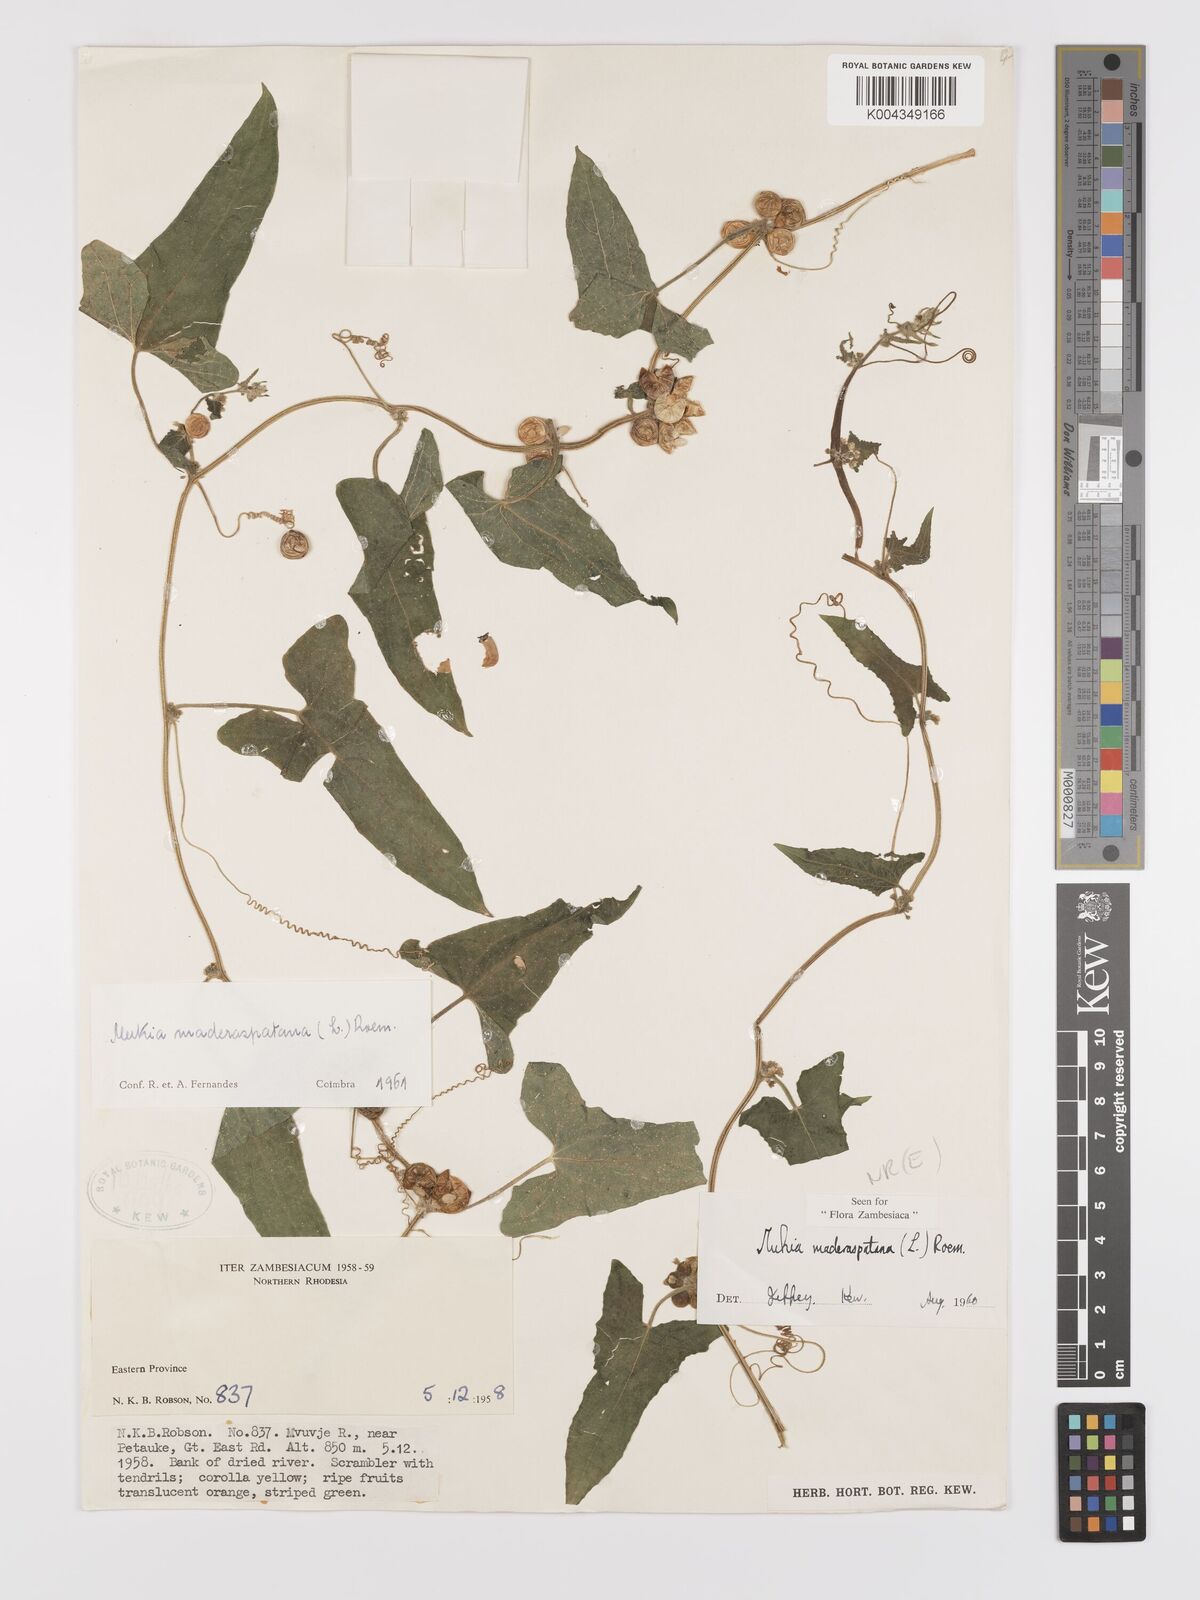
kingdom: Plantae
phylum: Tracheophyta
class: Magnoliopsida
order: Cucurbitales
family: Cucurbitaceae
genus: Cucumis
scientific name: Cucumis maderaspatanus
